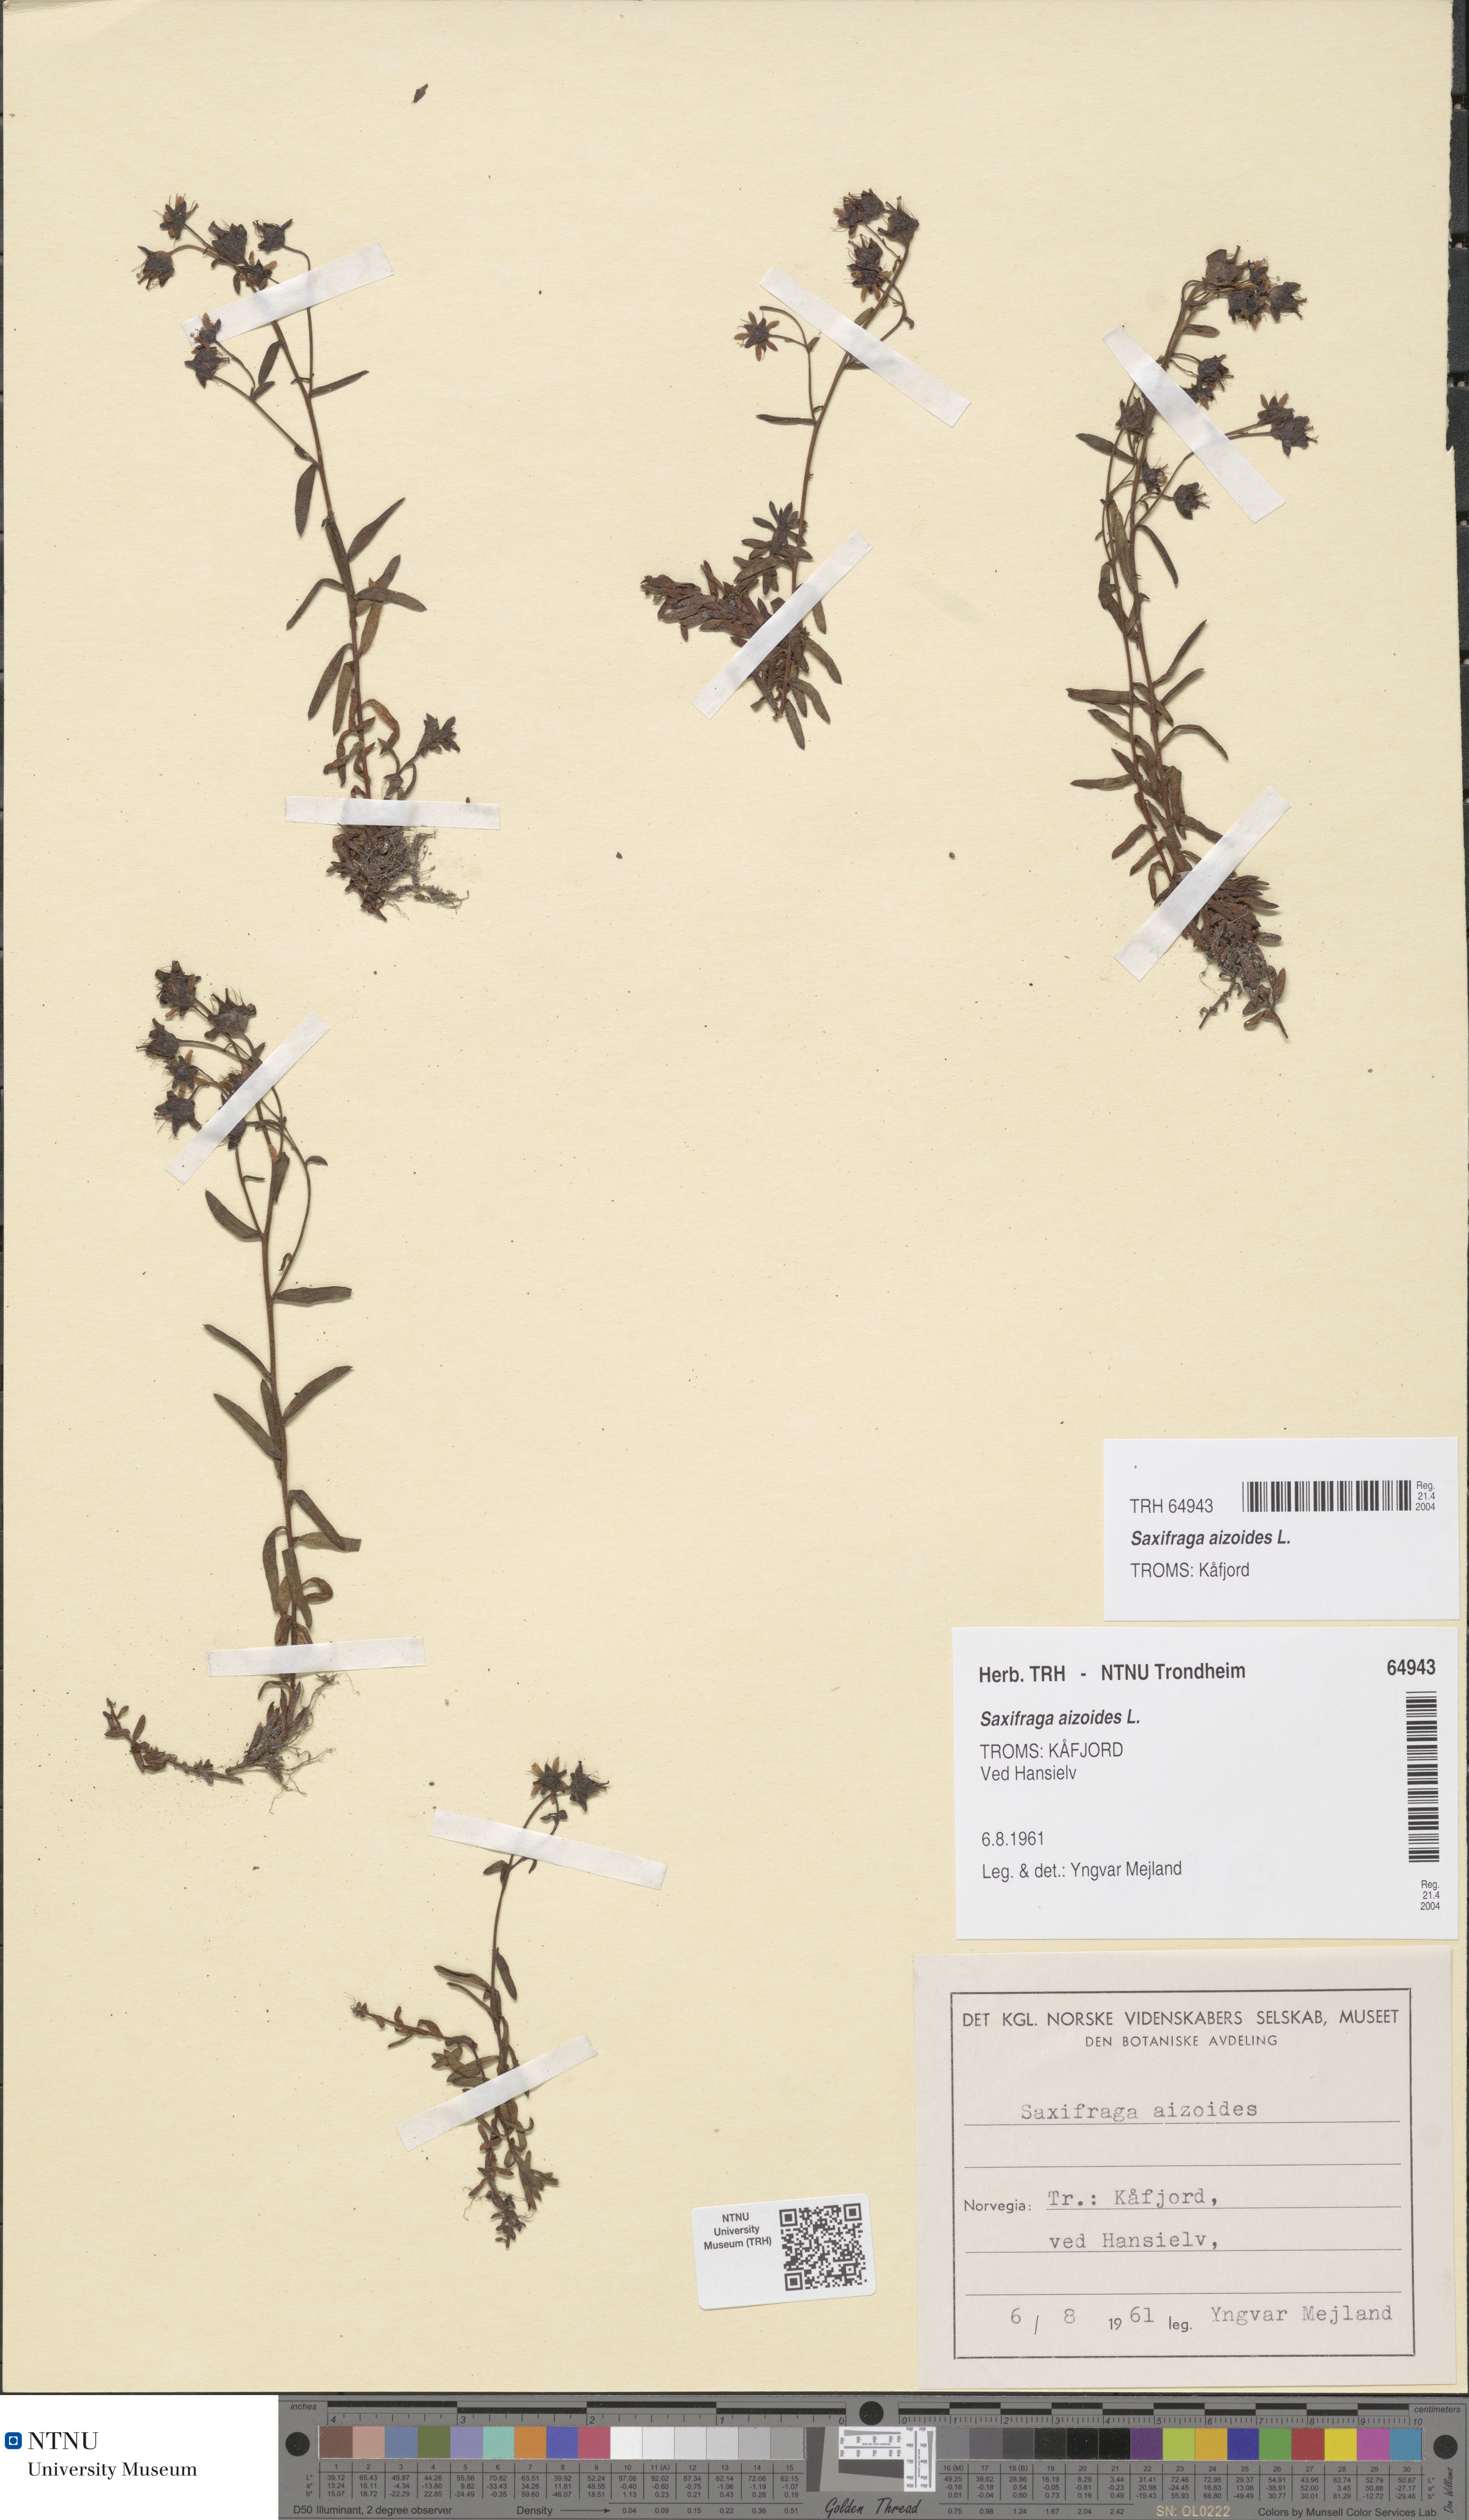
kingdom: Plantae
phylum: Tracheophyta
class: Magnoliopsida
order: Saxifragales
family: Saxifragaceae
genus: Saxifraga
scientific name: Saxifraga aizoides
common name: Yellow mountain saxifrage
